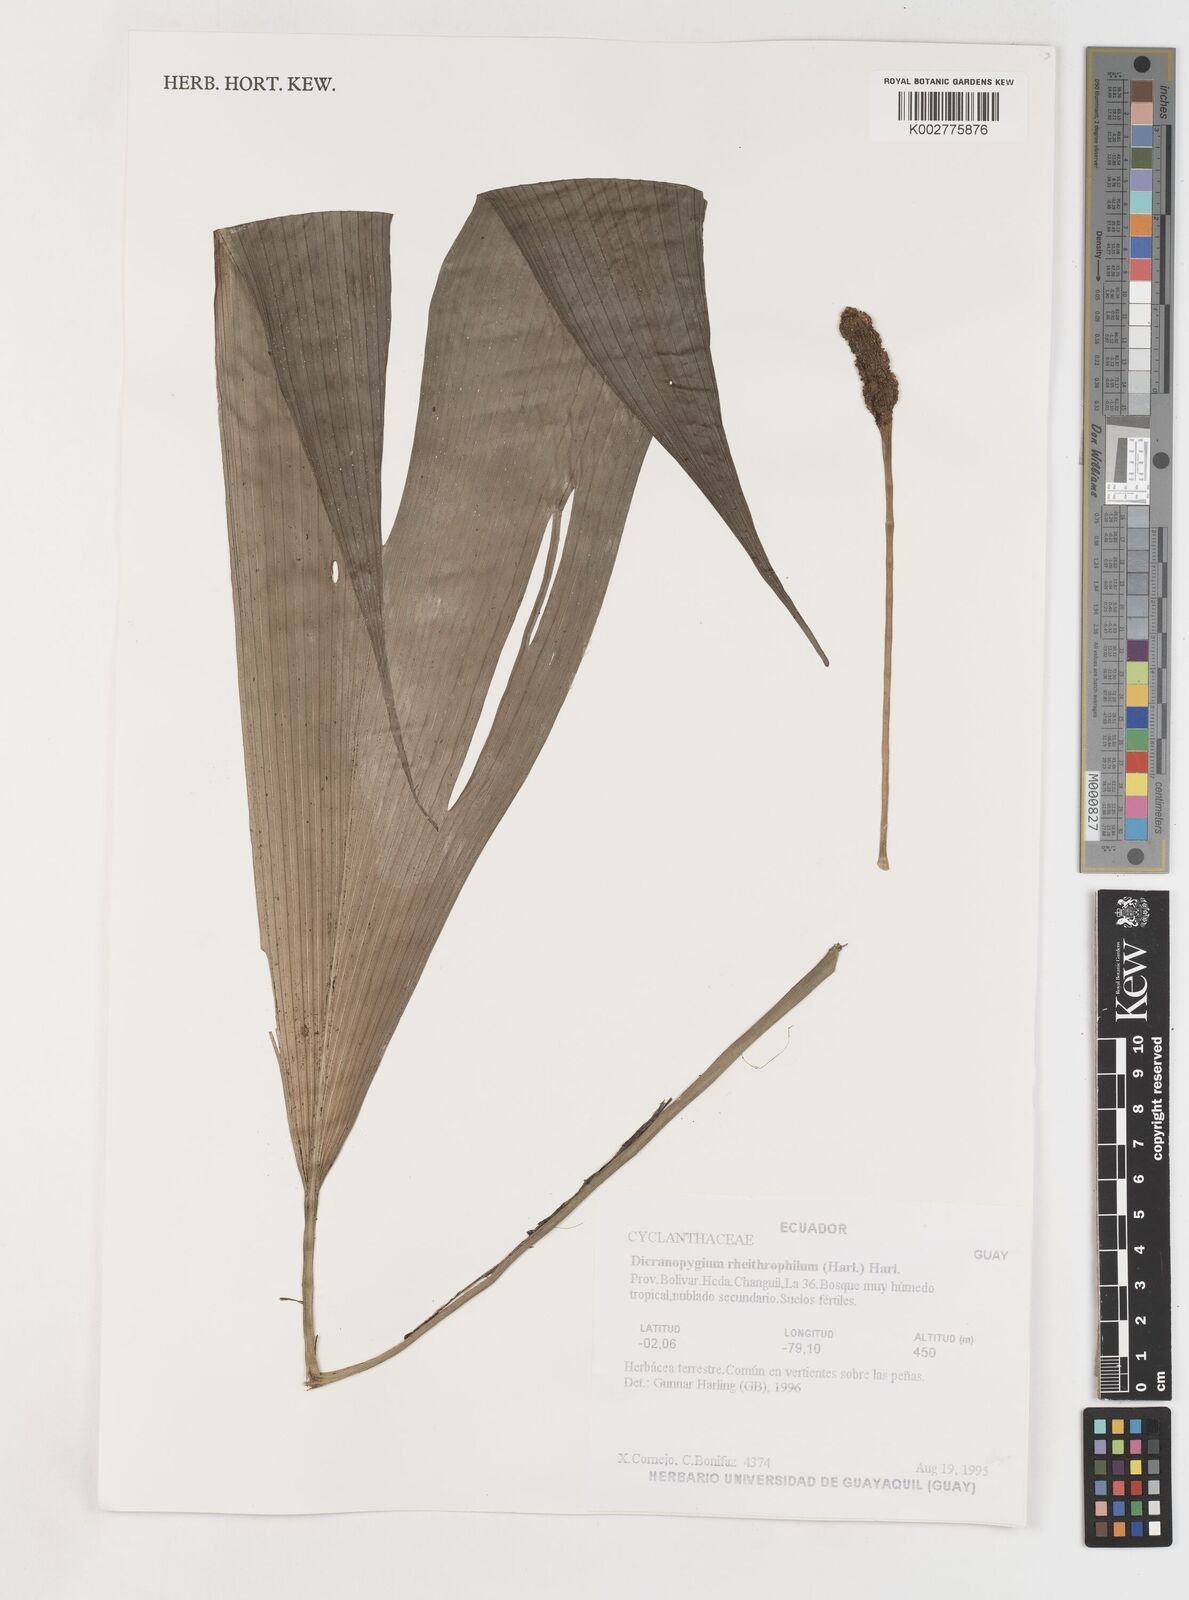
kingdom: Plantae
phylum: Tracheophyta
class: Liliopsida
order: Pandanales
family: Cyclanthaceae
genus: Dicranopygium
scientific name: Dicranopygium rheithrophilum
